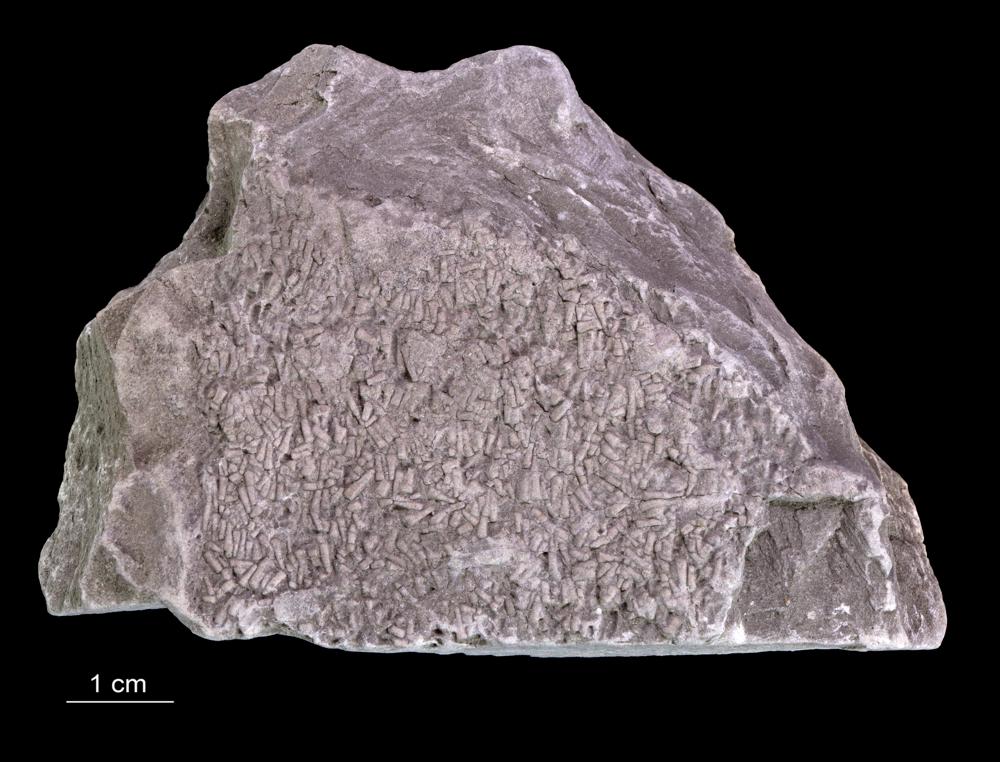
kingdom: Animalia
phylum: Annelida
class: Polychaeta
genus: Volborthella
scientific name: Volborthella tenuis
